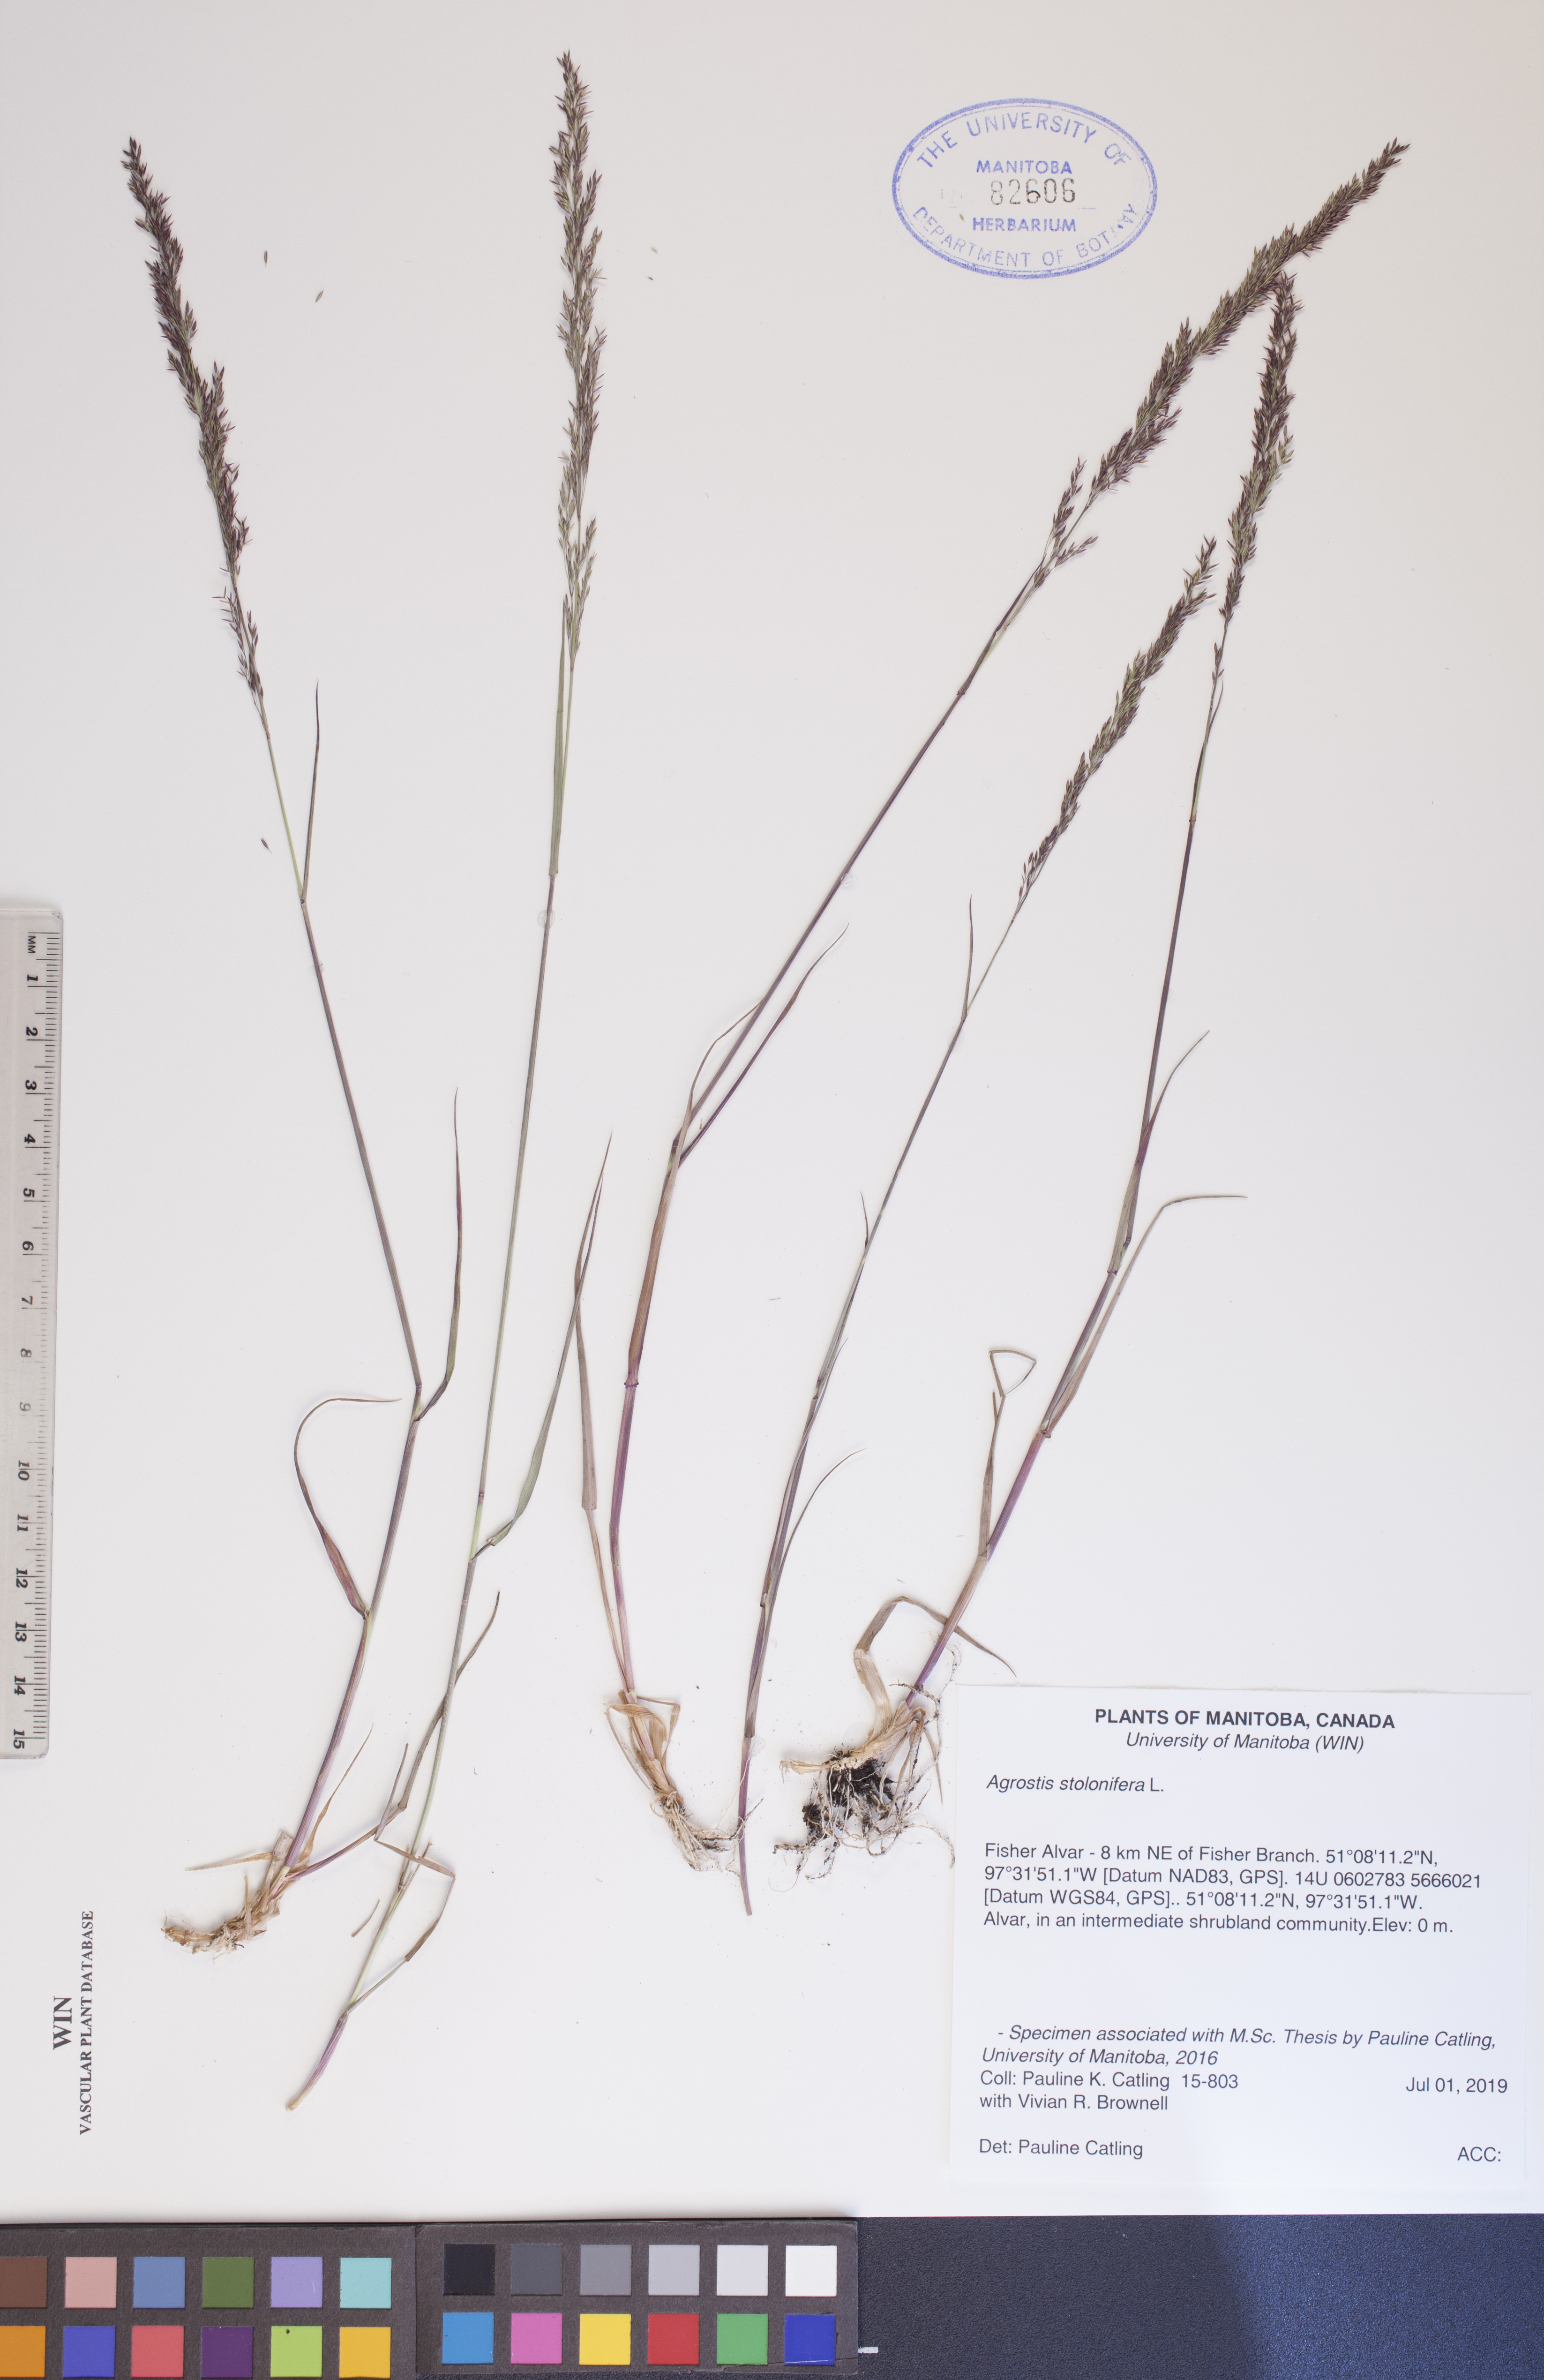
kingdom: Plantae
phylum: Tracheophyta
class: Liliopsida
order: Poales
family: Poaceae
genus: Agrostis
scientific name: Agrostis stolonifera
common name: Creeping bentgrass
